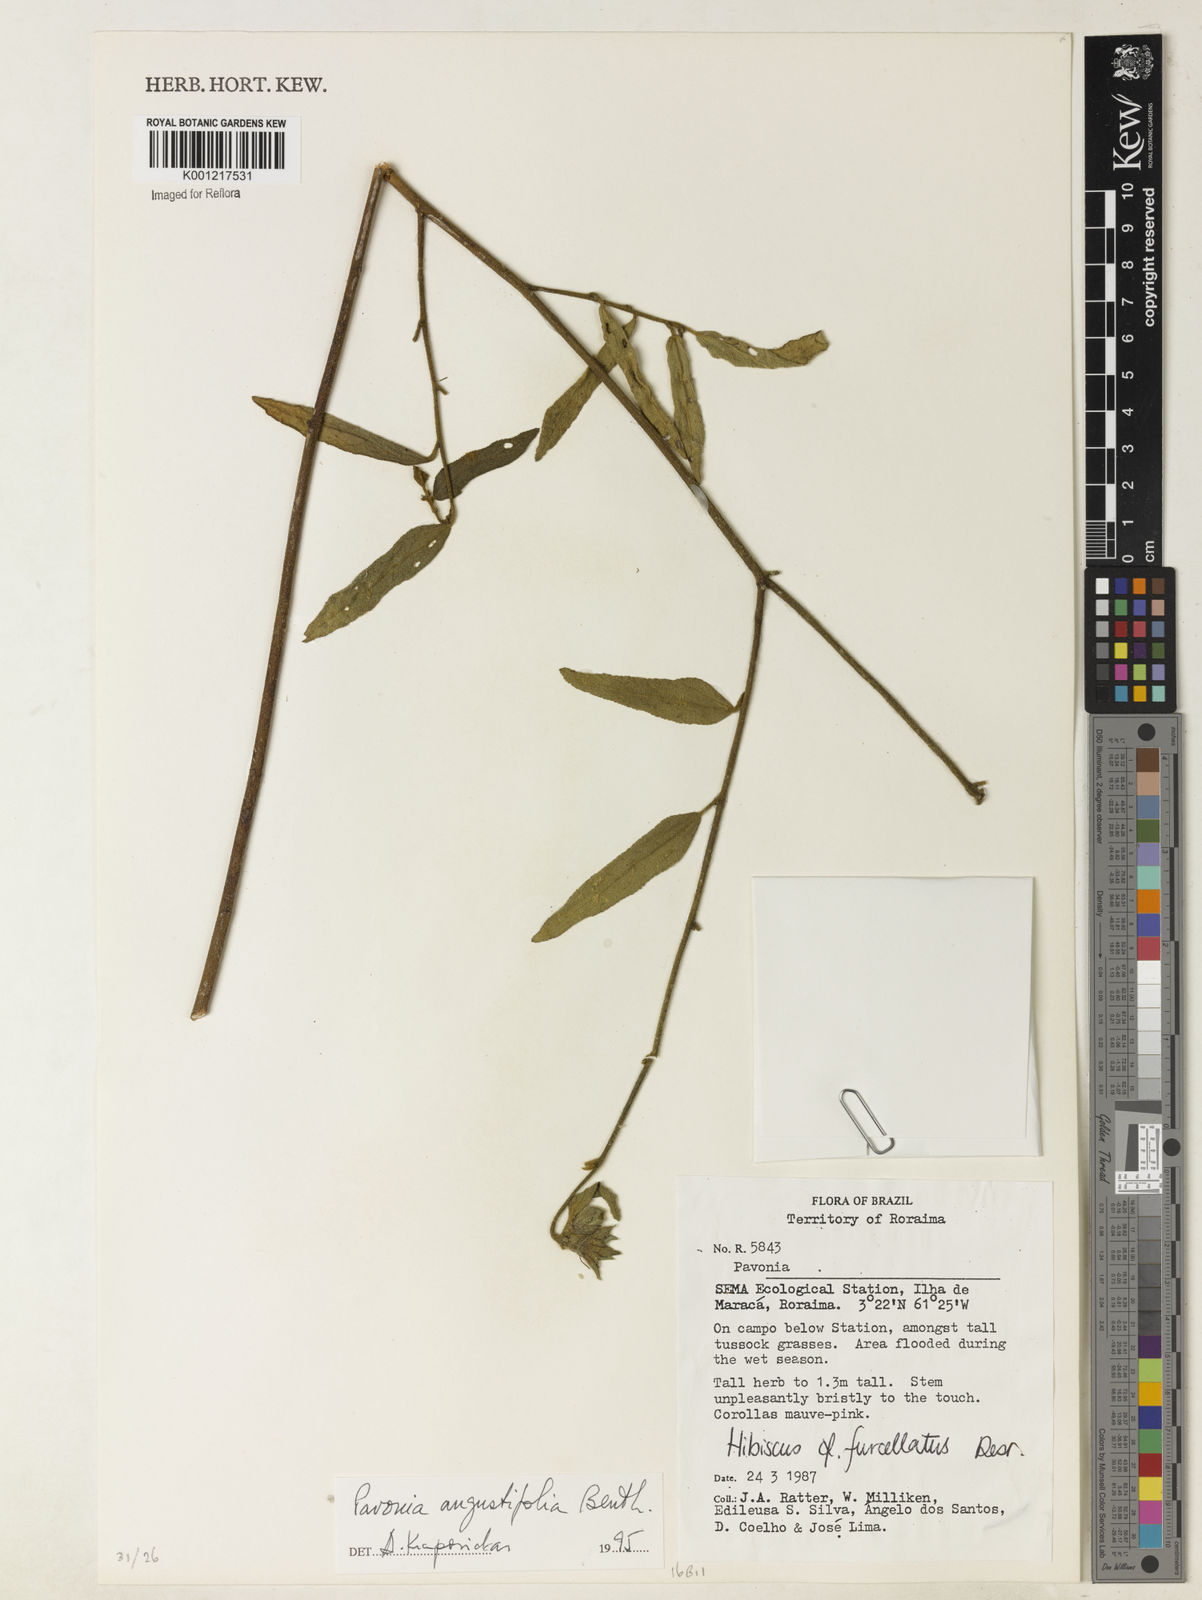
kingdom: Plantae
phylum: Tracheophyta
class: Magnoliopsida
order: Malvales
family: Malvaceae
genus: Pavonia
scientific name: Pavonia angustifolia
